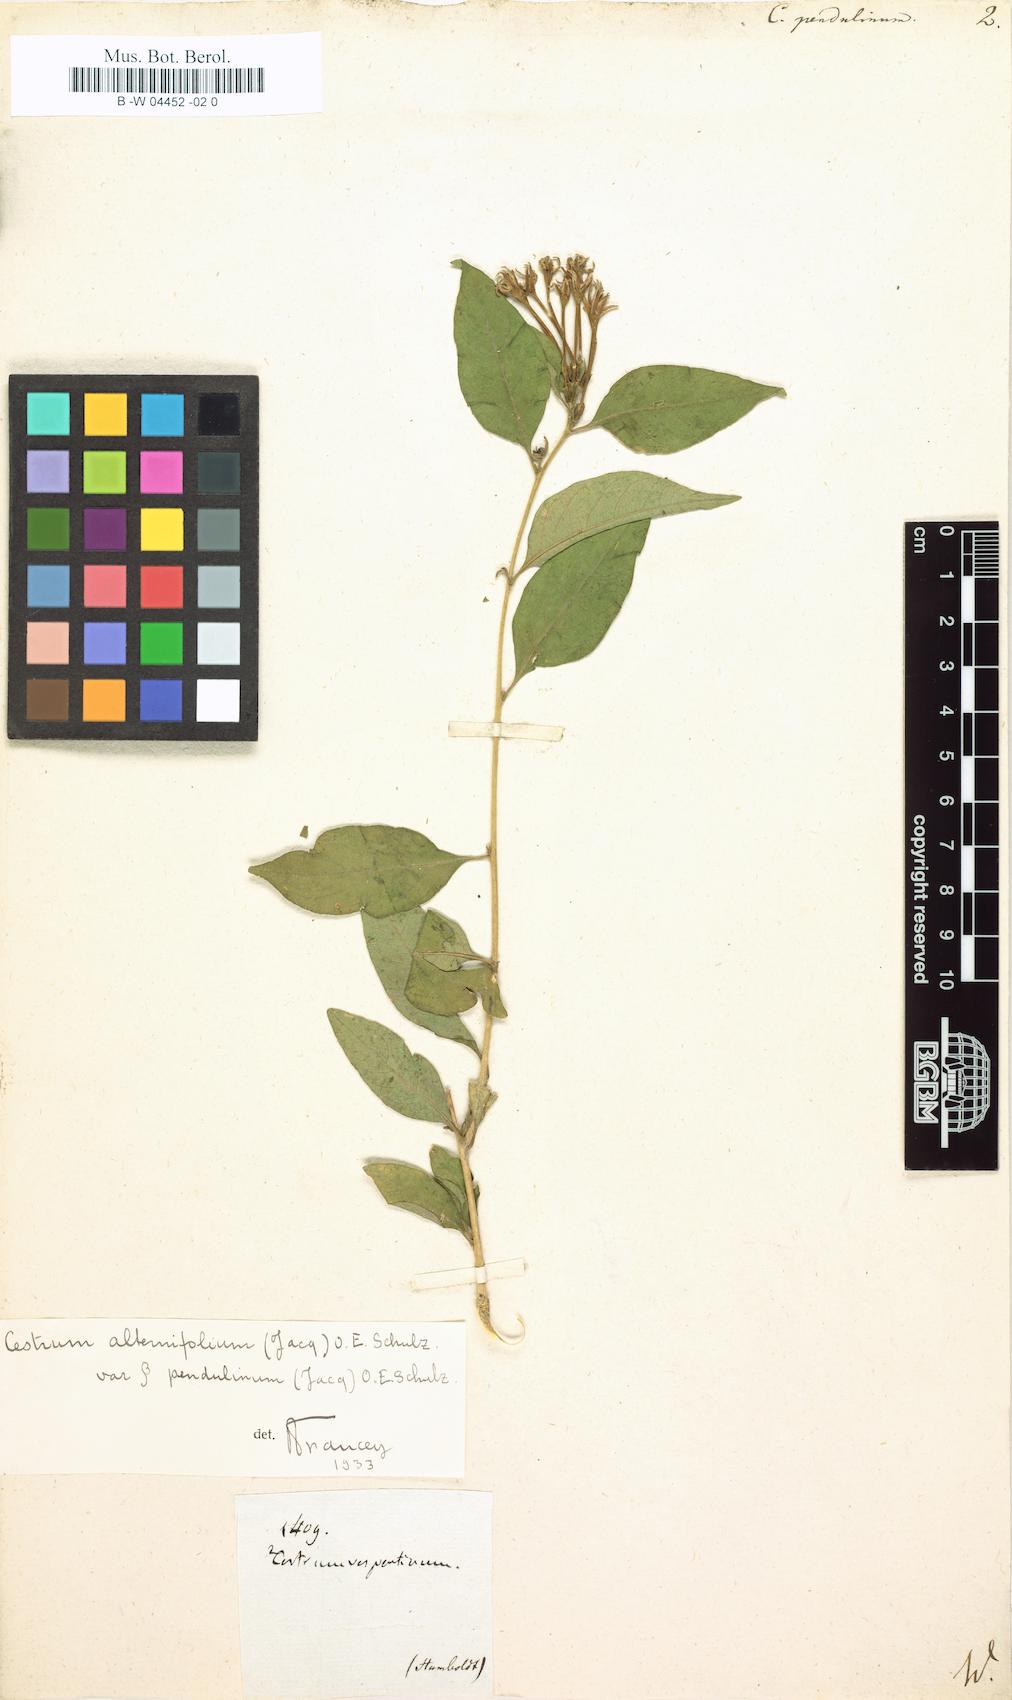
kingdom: Plantae
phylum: Tracheophyta
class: Magnoliopsida
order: Solanales
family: Solanaceae
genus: Cestrum
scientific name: Cestrum
